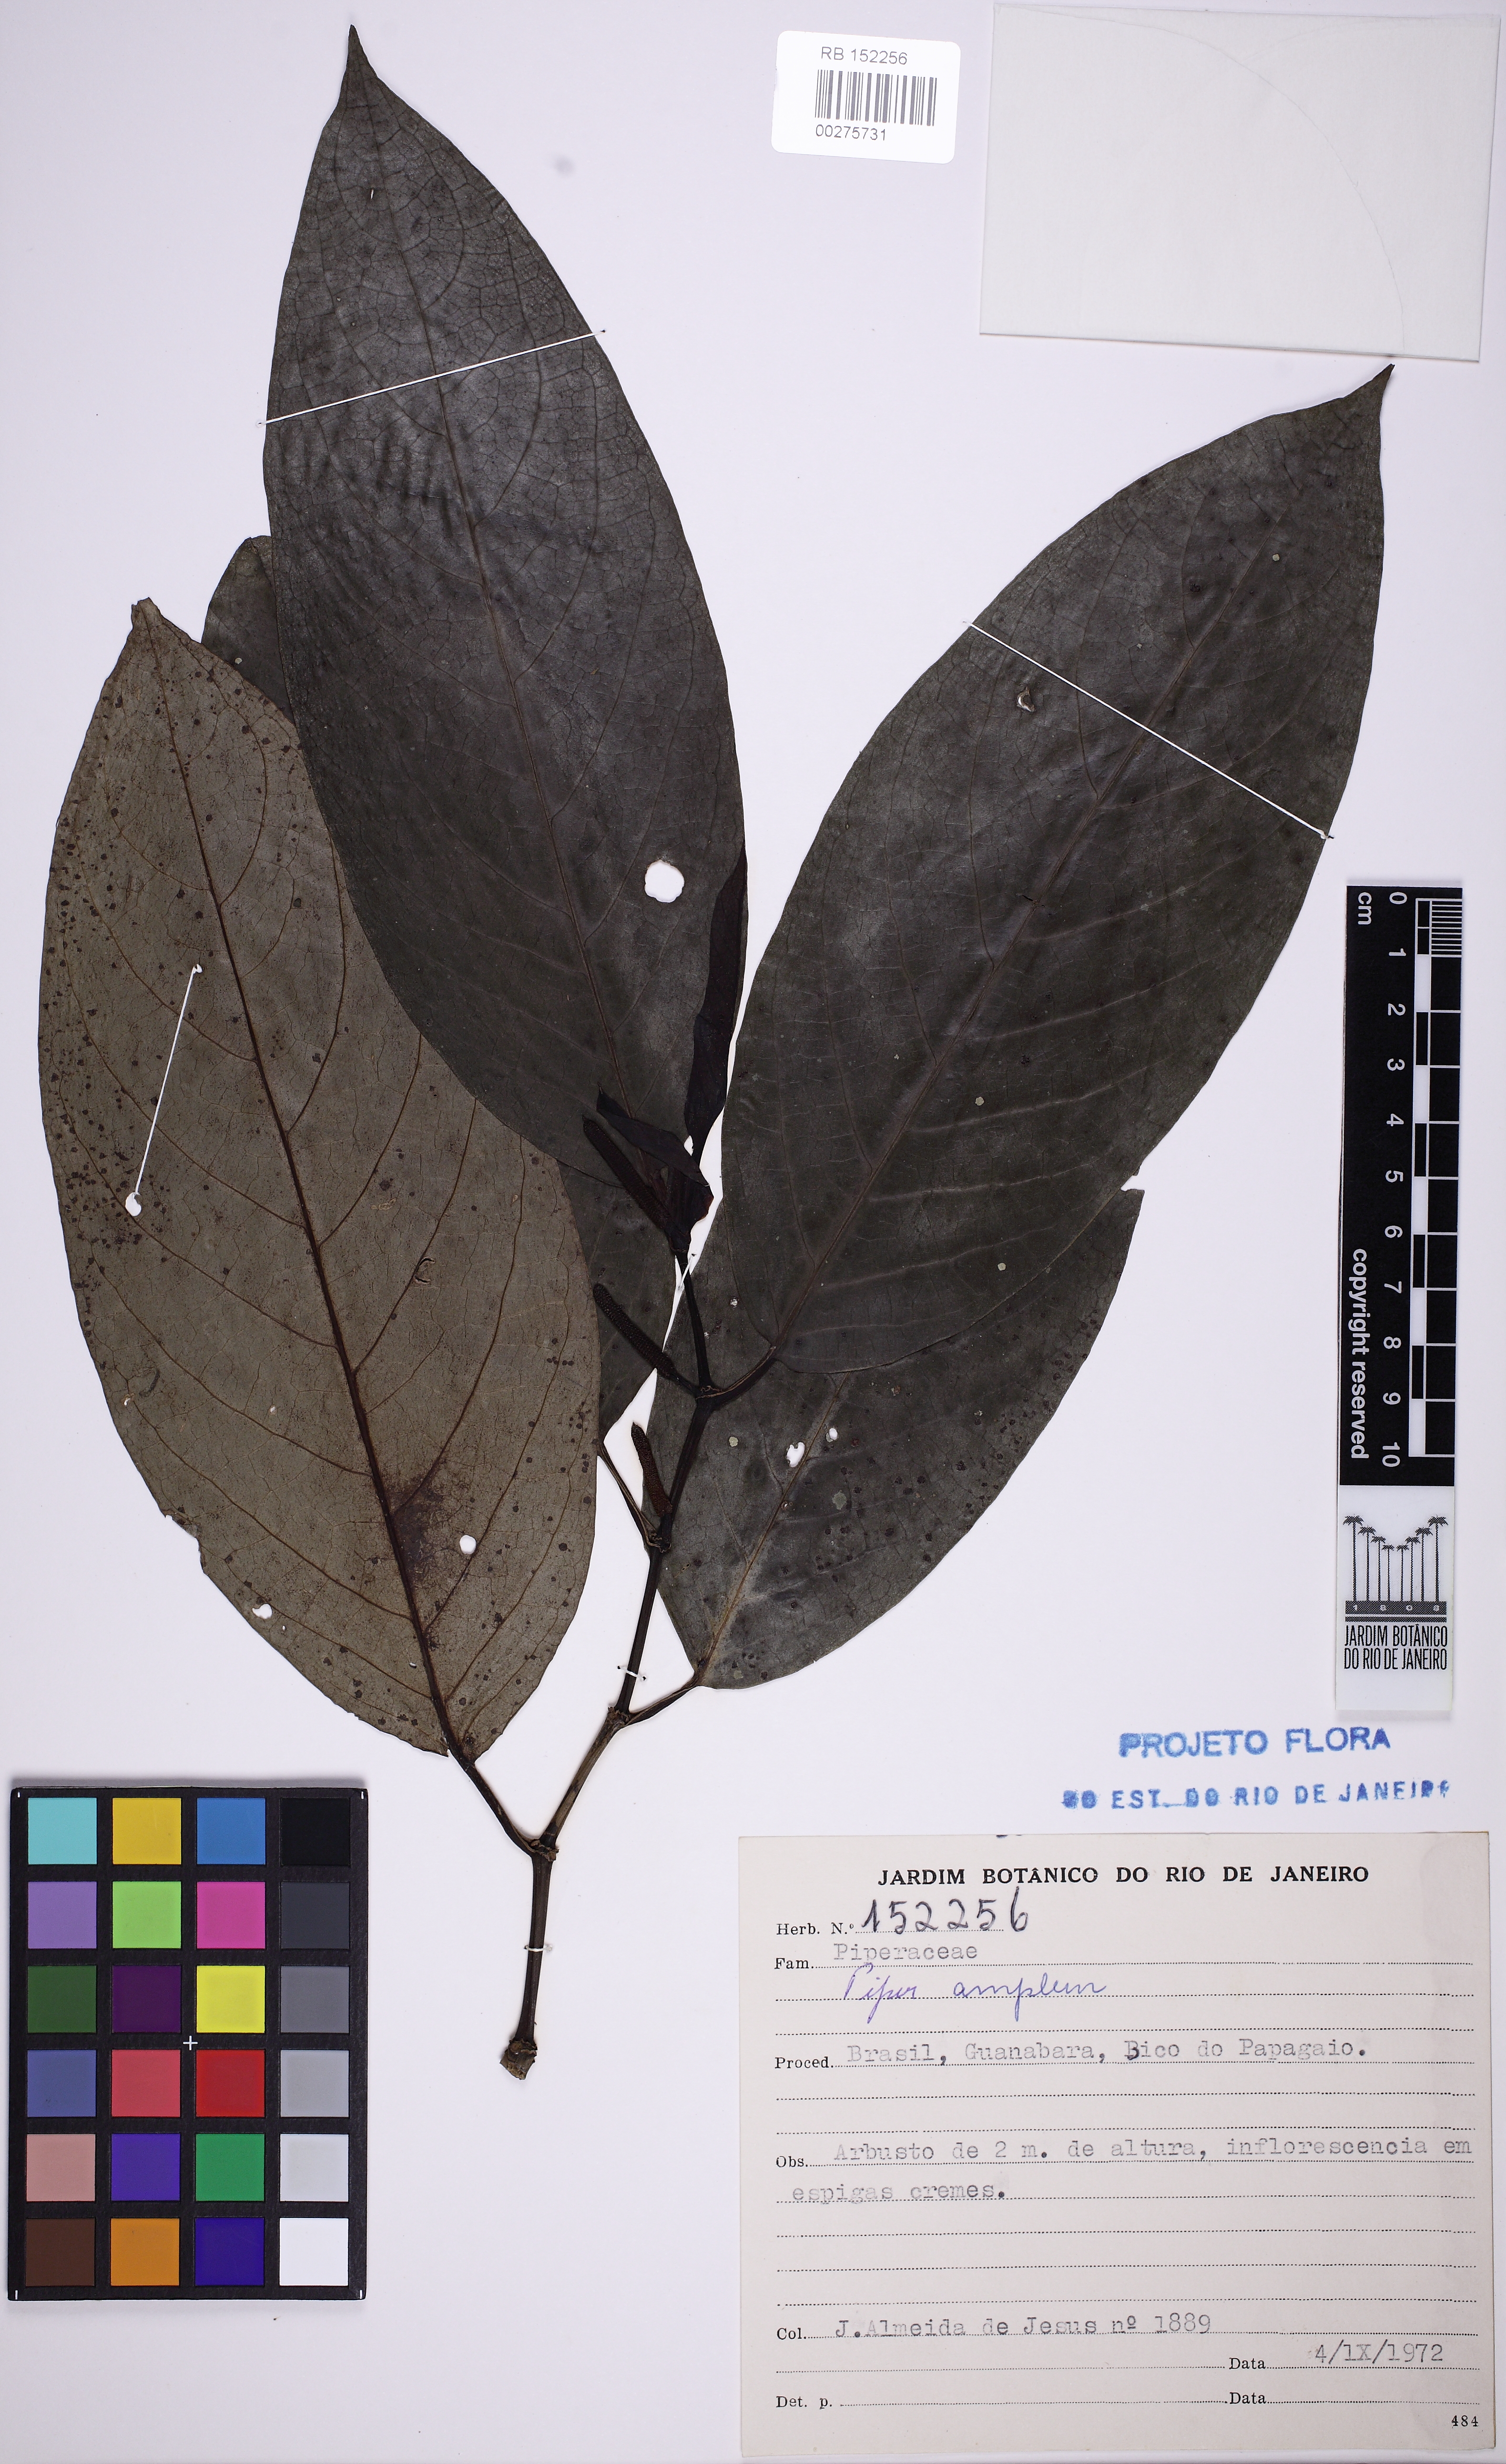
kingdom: Plantae
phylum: Tracheophyta
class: Magnoliopsida
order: Piperales
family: Piperaceae
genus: Piper
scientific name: Piper fluminense
